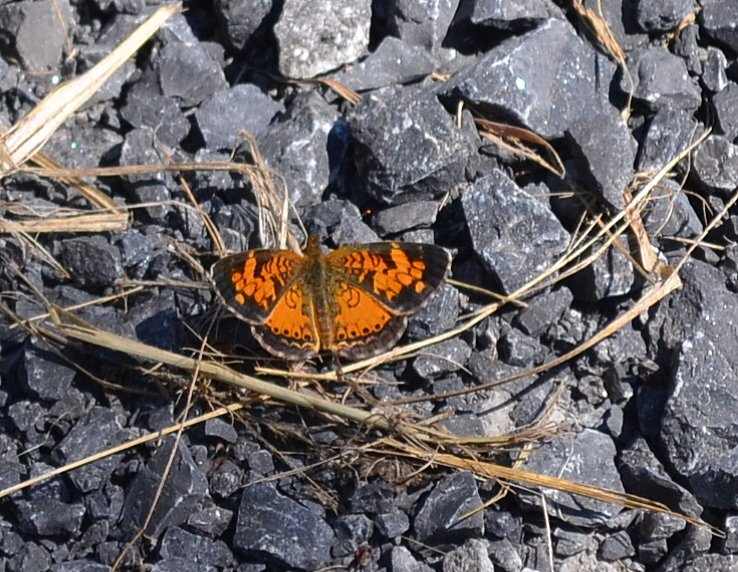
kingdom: Animalia
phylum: Arthropoda
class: Insecta
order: Lepidoptera
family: Nymphalidae
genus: Phyciodes
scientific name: Phyciodes tharos
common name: Northern Crescent
